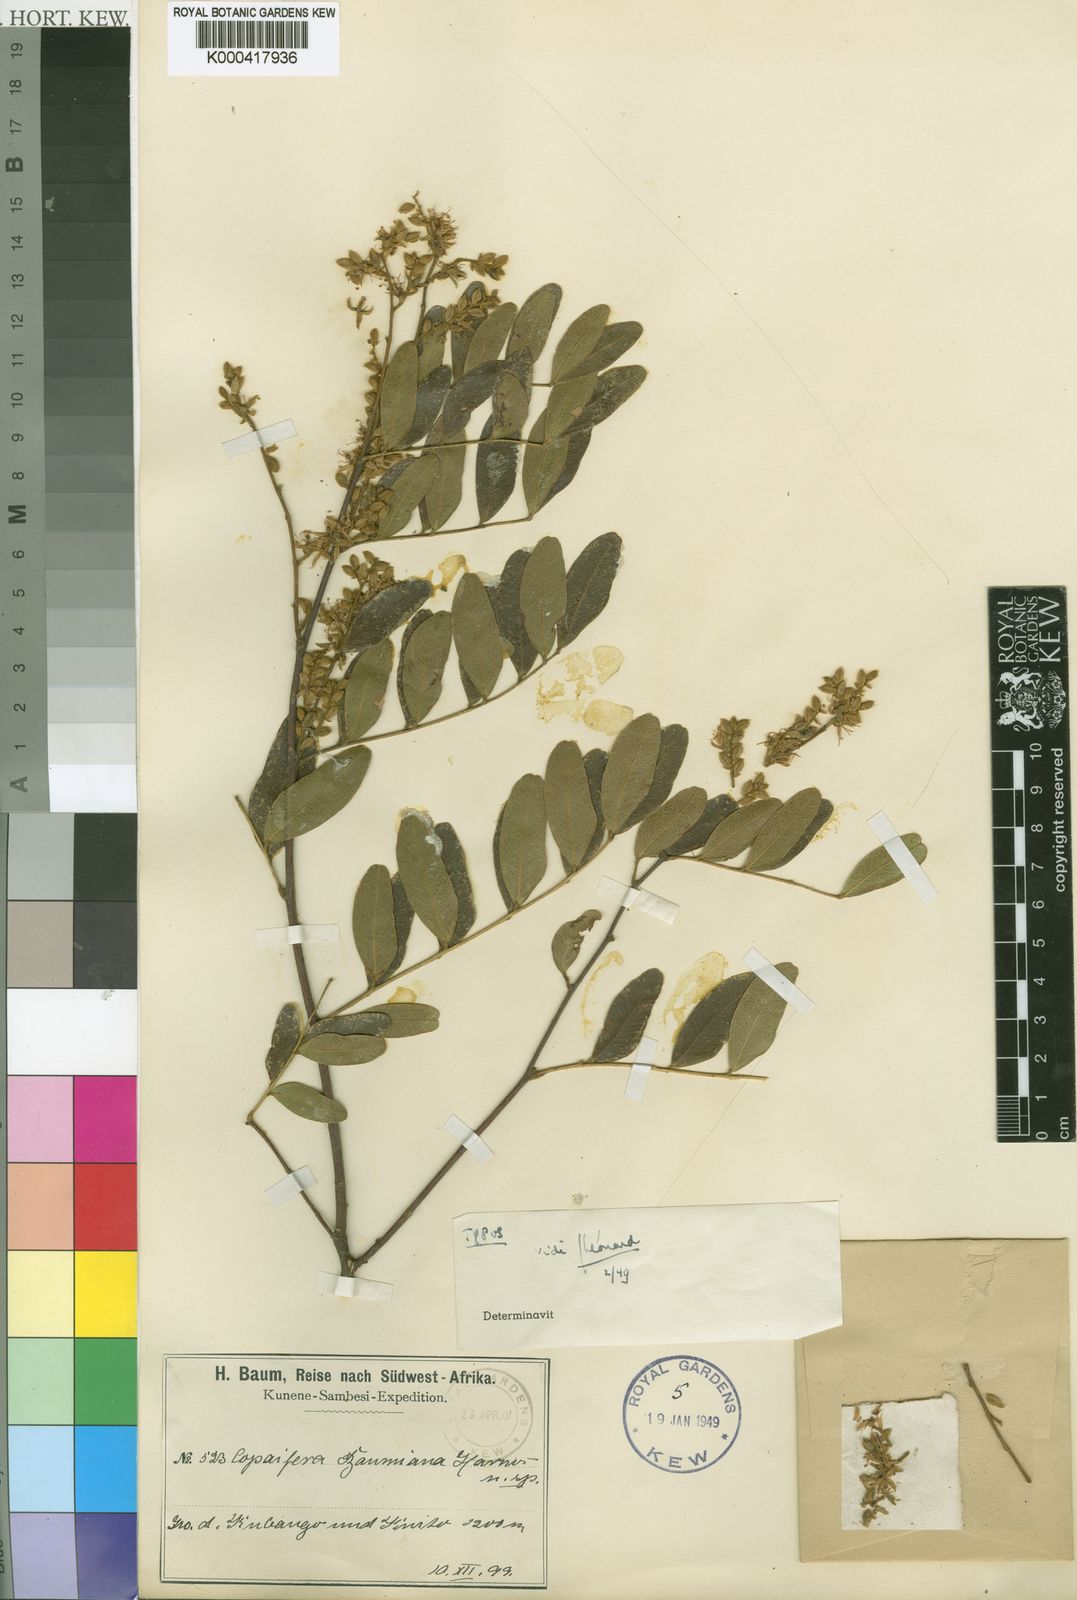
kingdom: Plantae
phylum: Tracheophyta
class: Magnoliopsida
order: Fabales
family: Fabaceae
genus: Copaifera
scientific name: Copaifera baumiana
